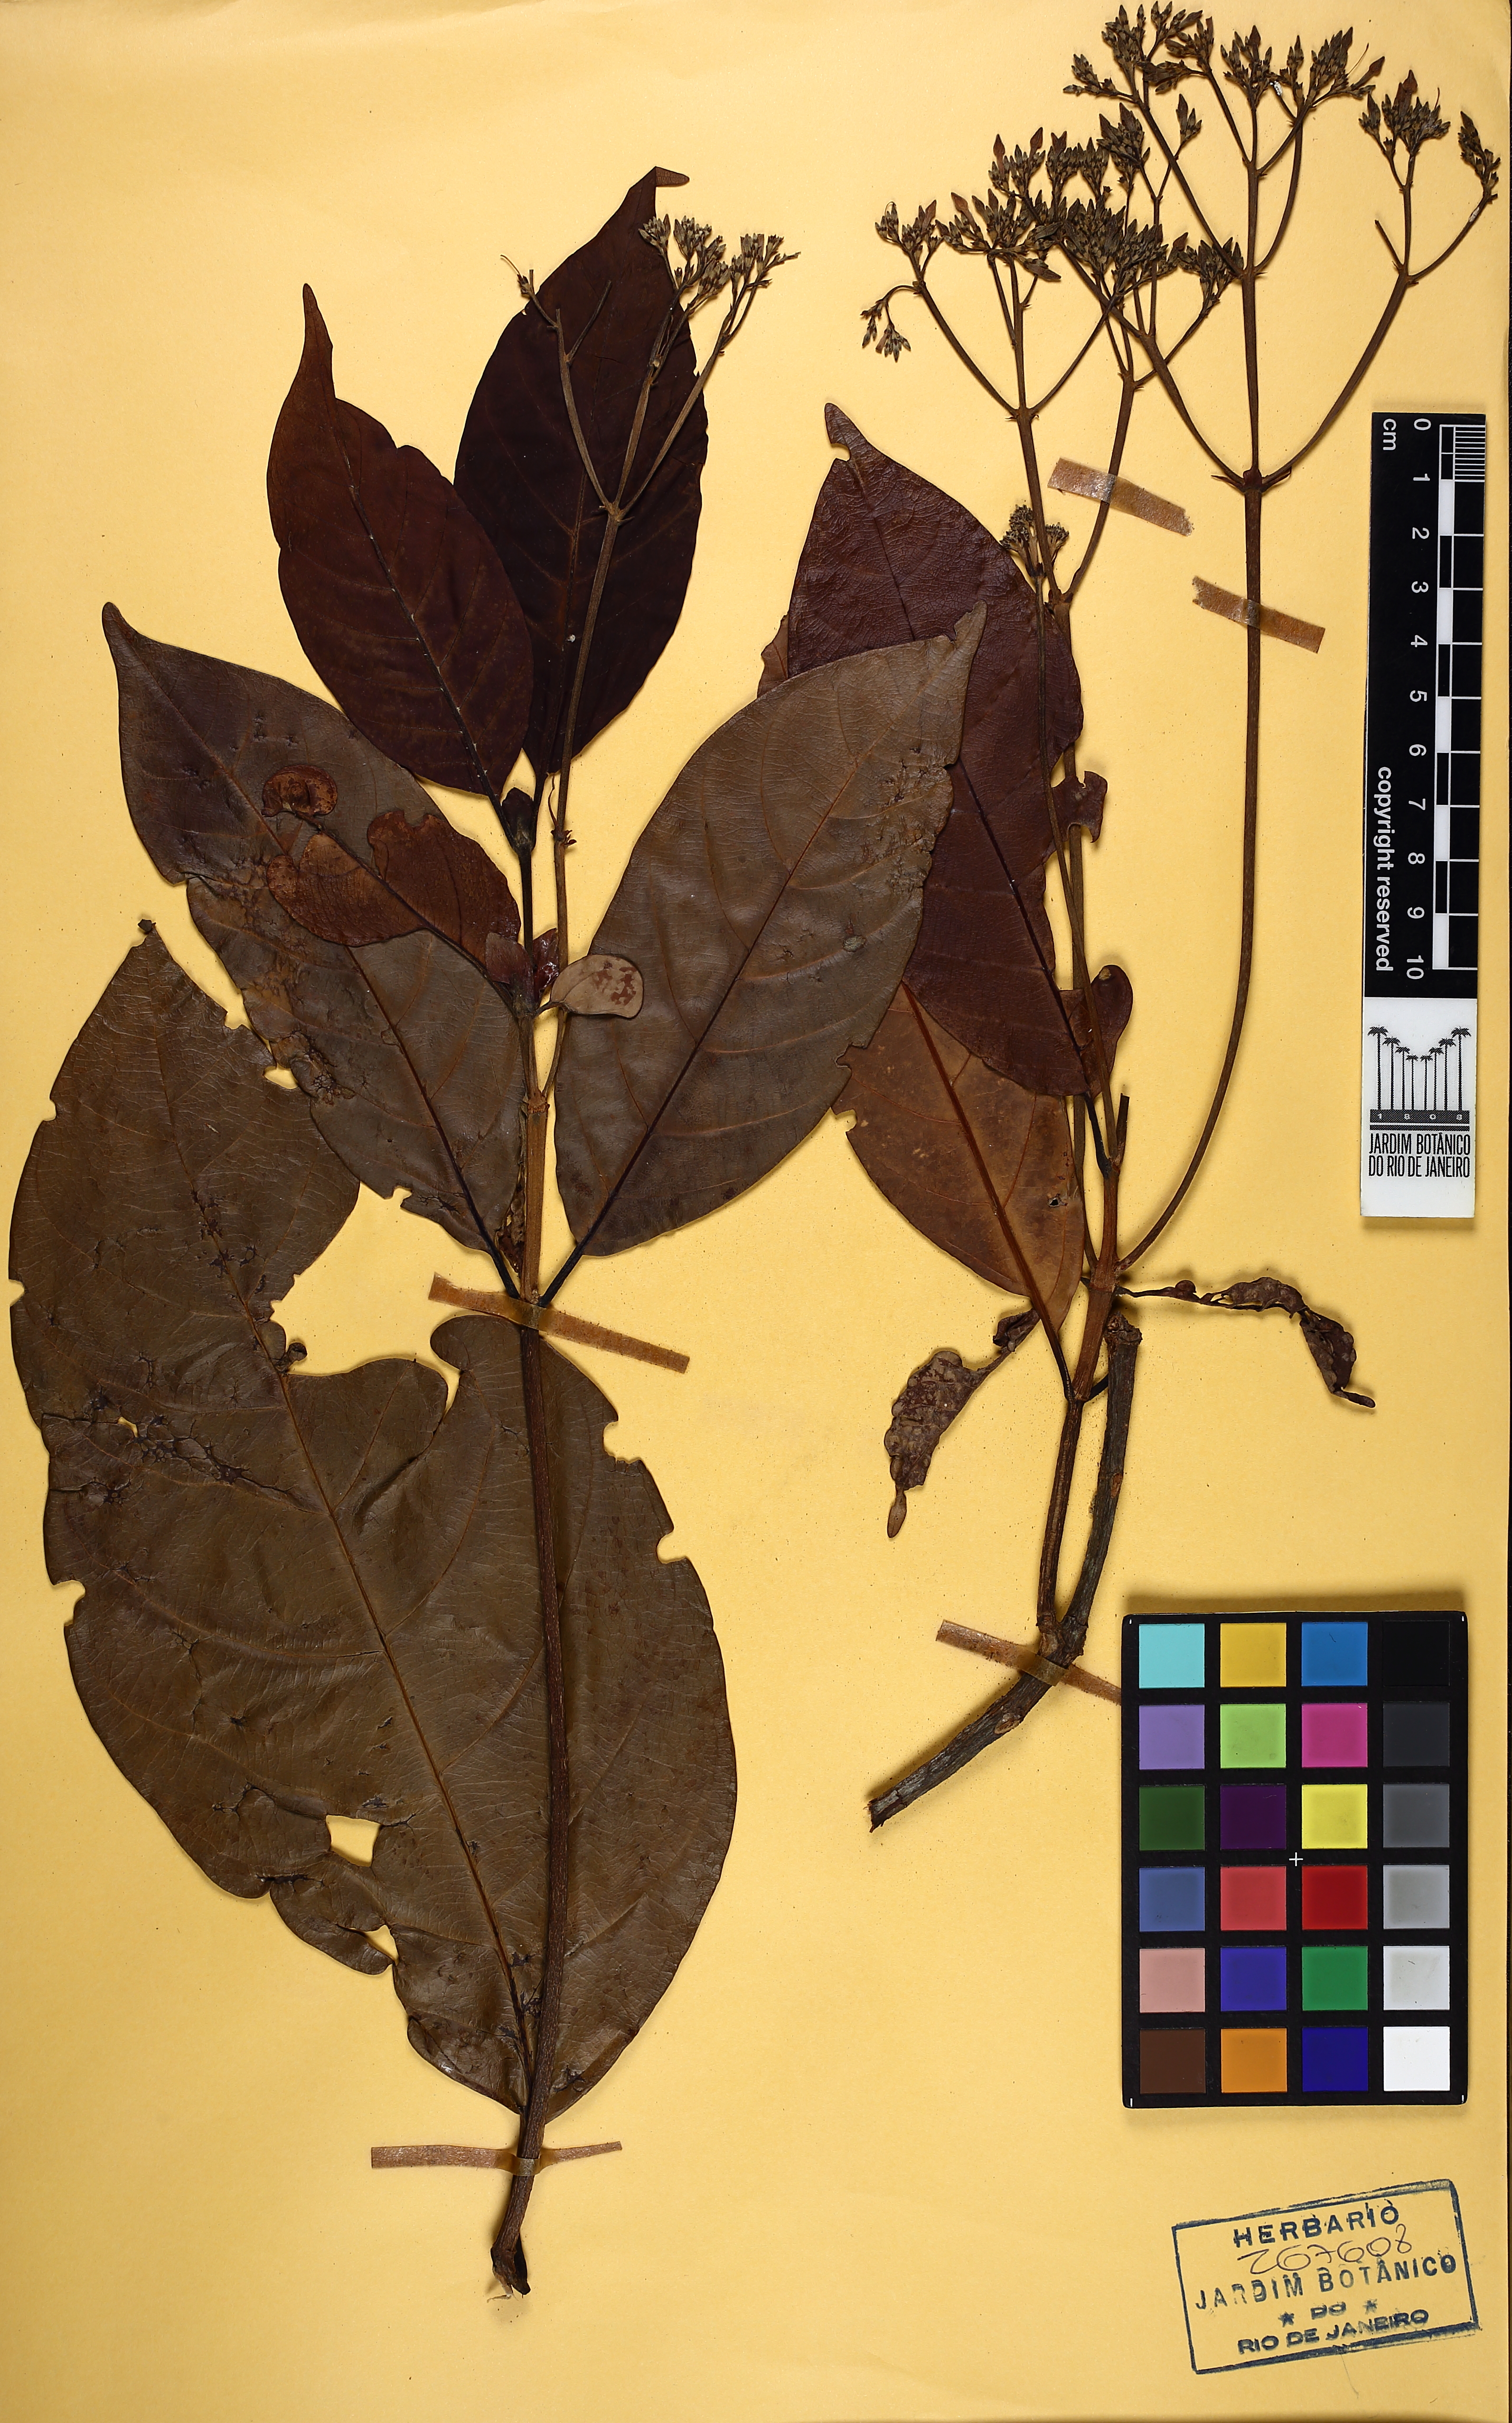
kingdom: Plantae
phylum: Tracheophyta
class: Magnoliopsida
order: Gentianales
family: Rubiaceae
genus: Ciliosemina
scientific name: Ciliosemina pedunculata
